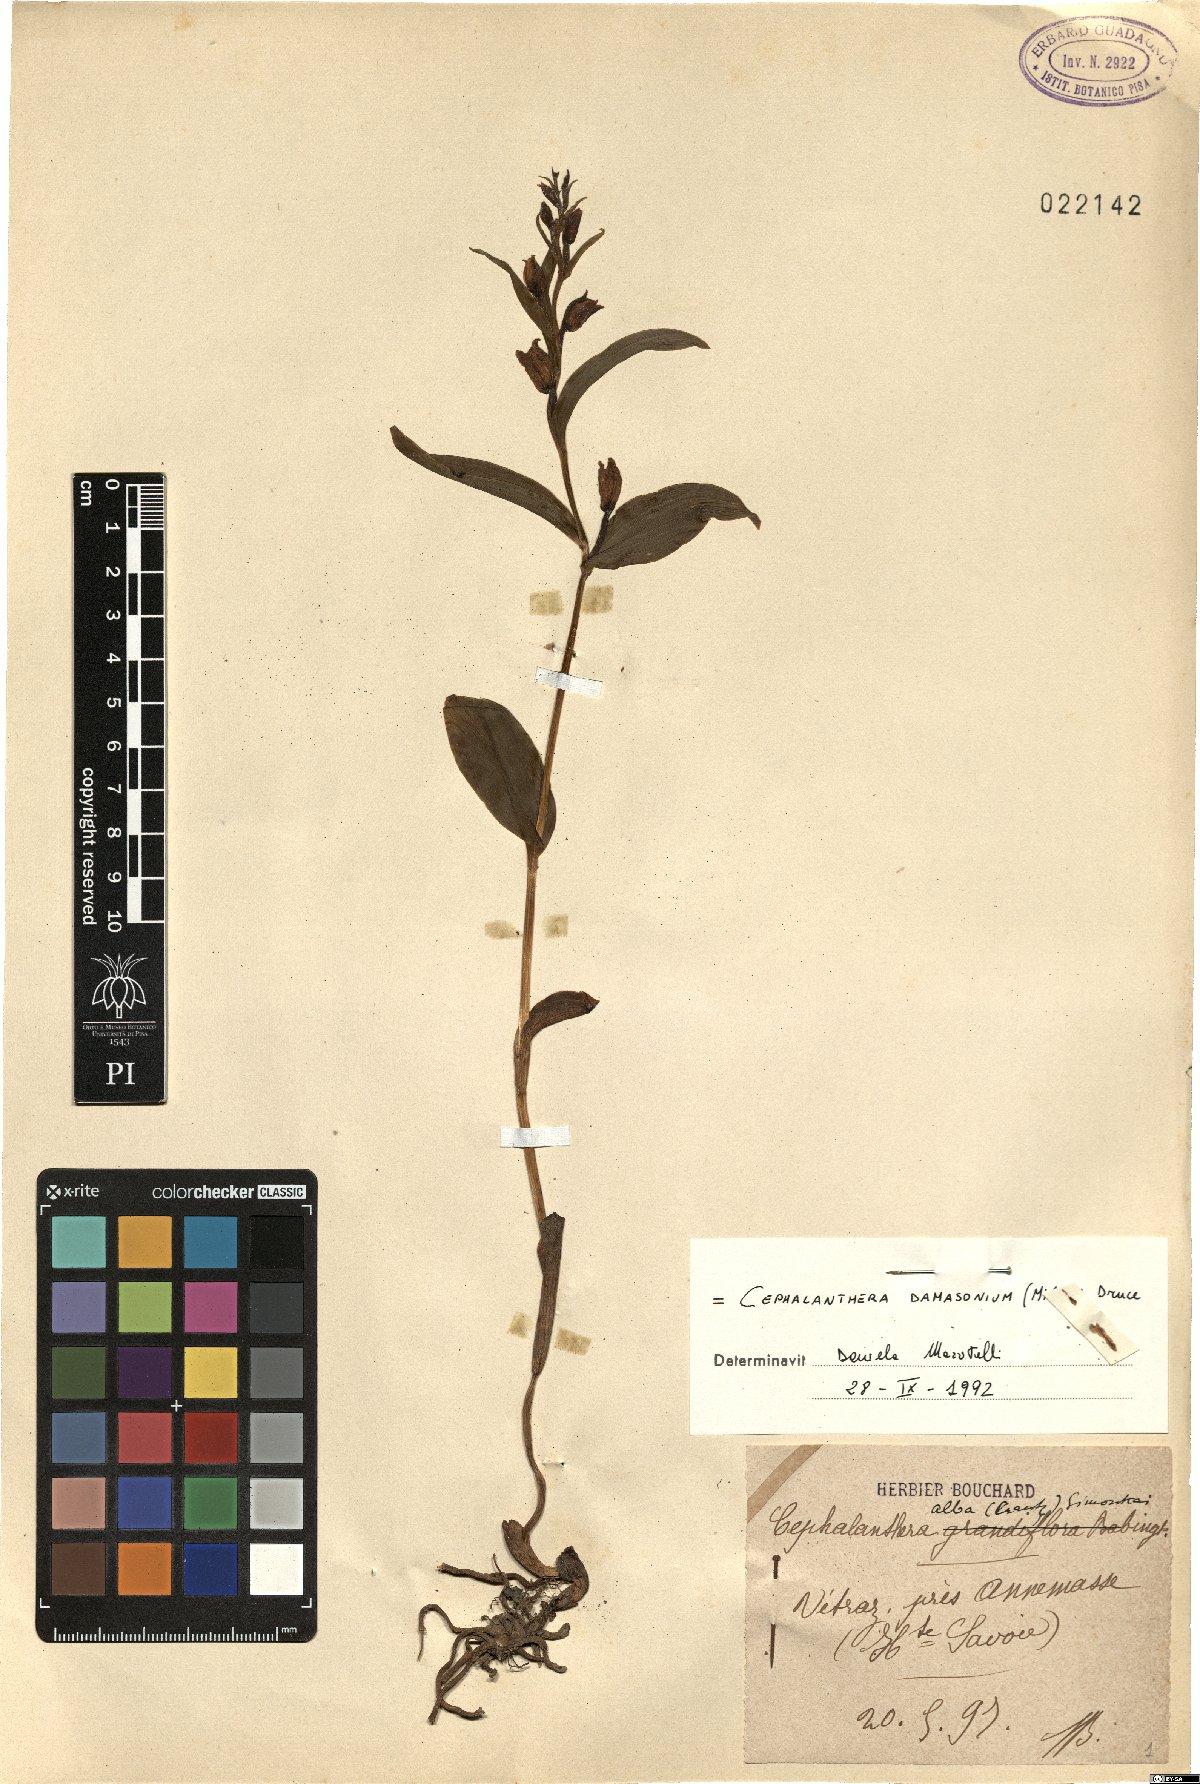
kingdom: Plantae
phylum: Tracheophyta
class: Liliopsida
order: Asparagales
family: Orchidaceae
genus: Cephalanthera
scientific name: Cephalanthera damasonium
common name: White helleborine
